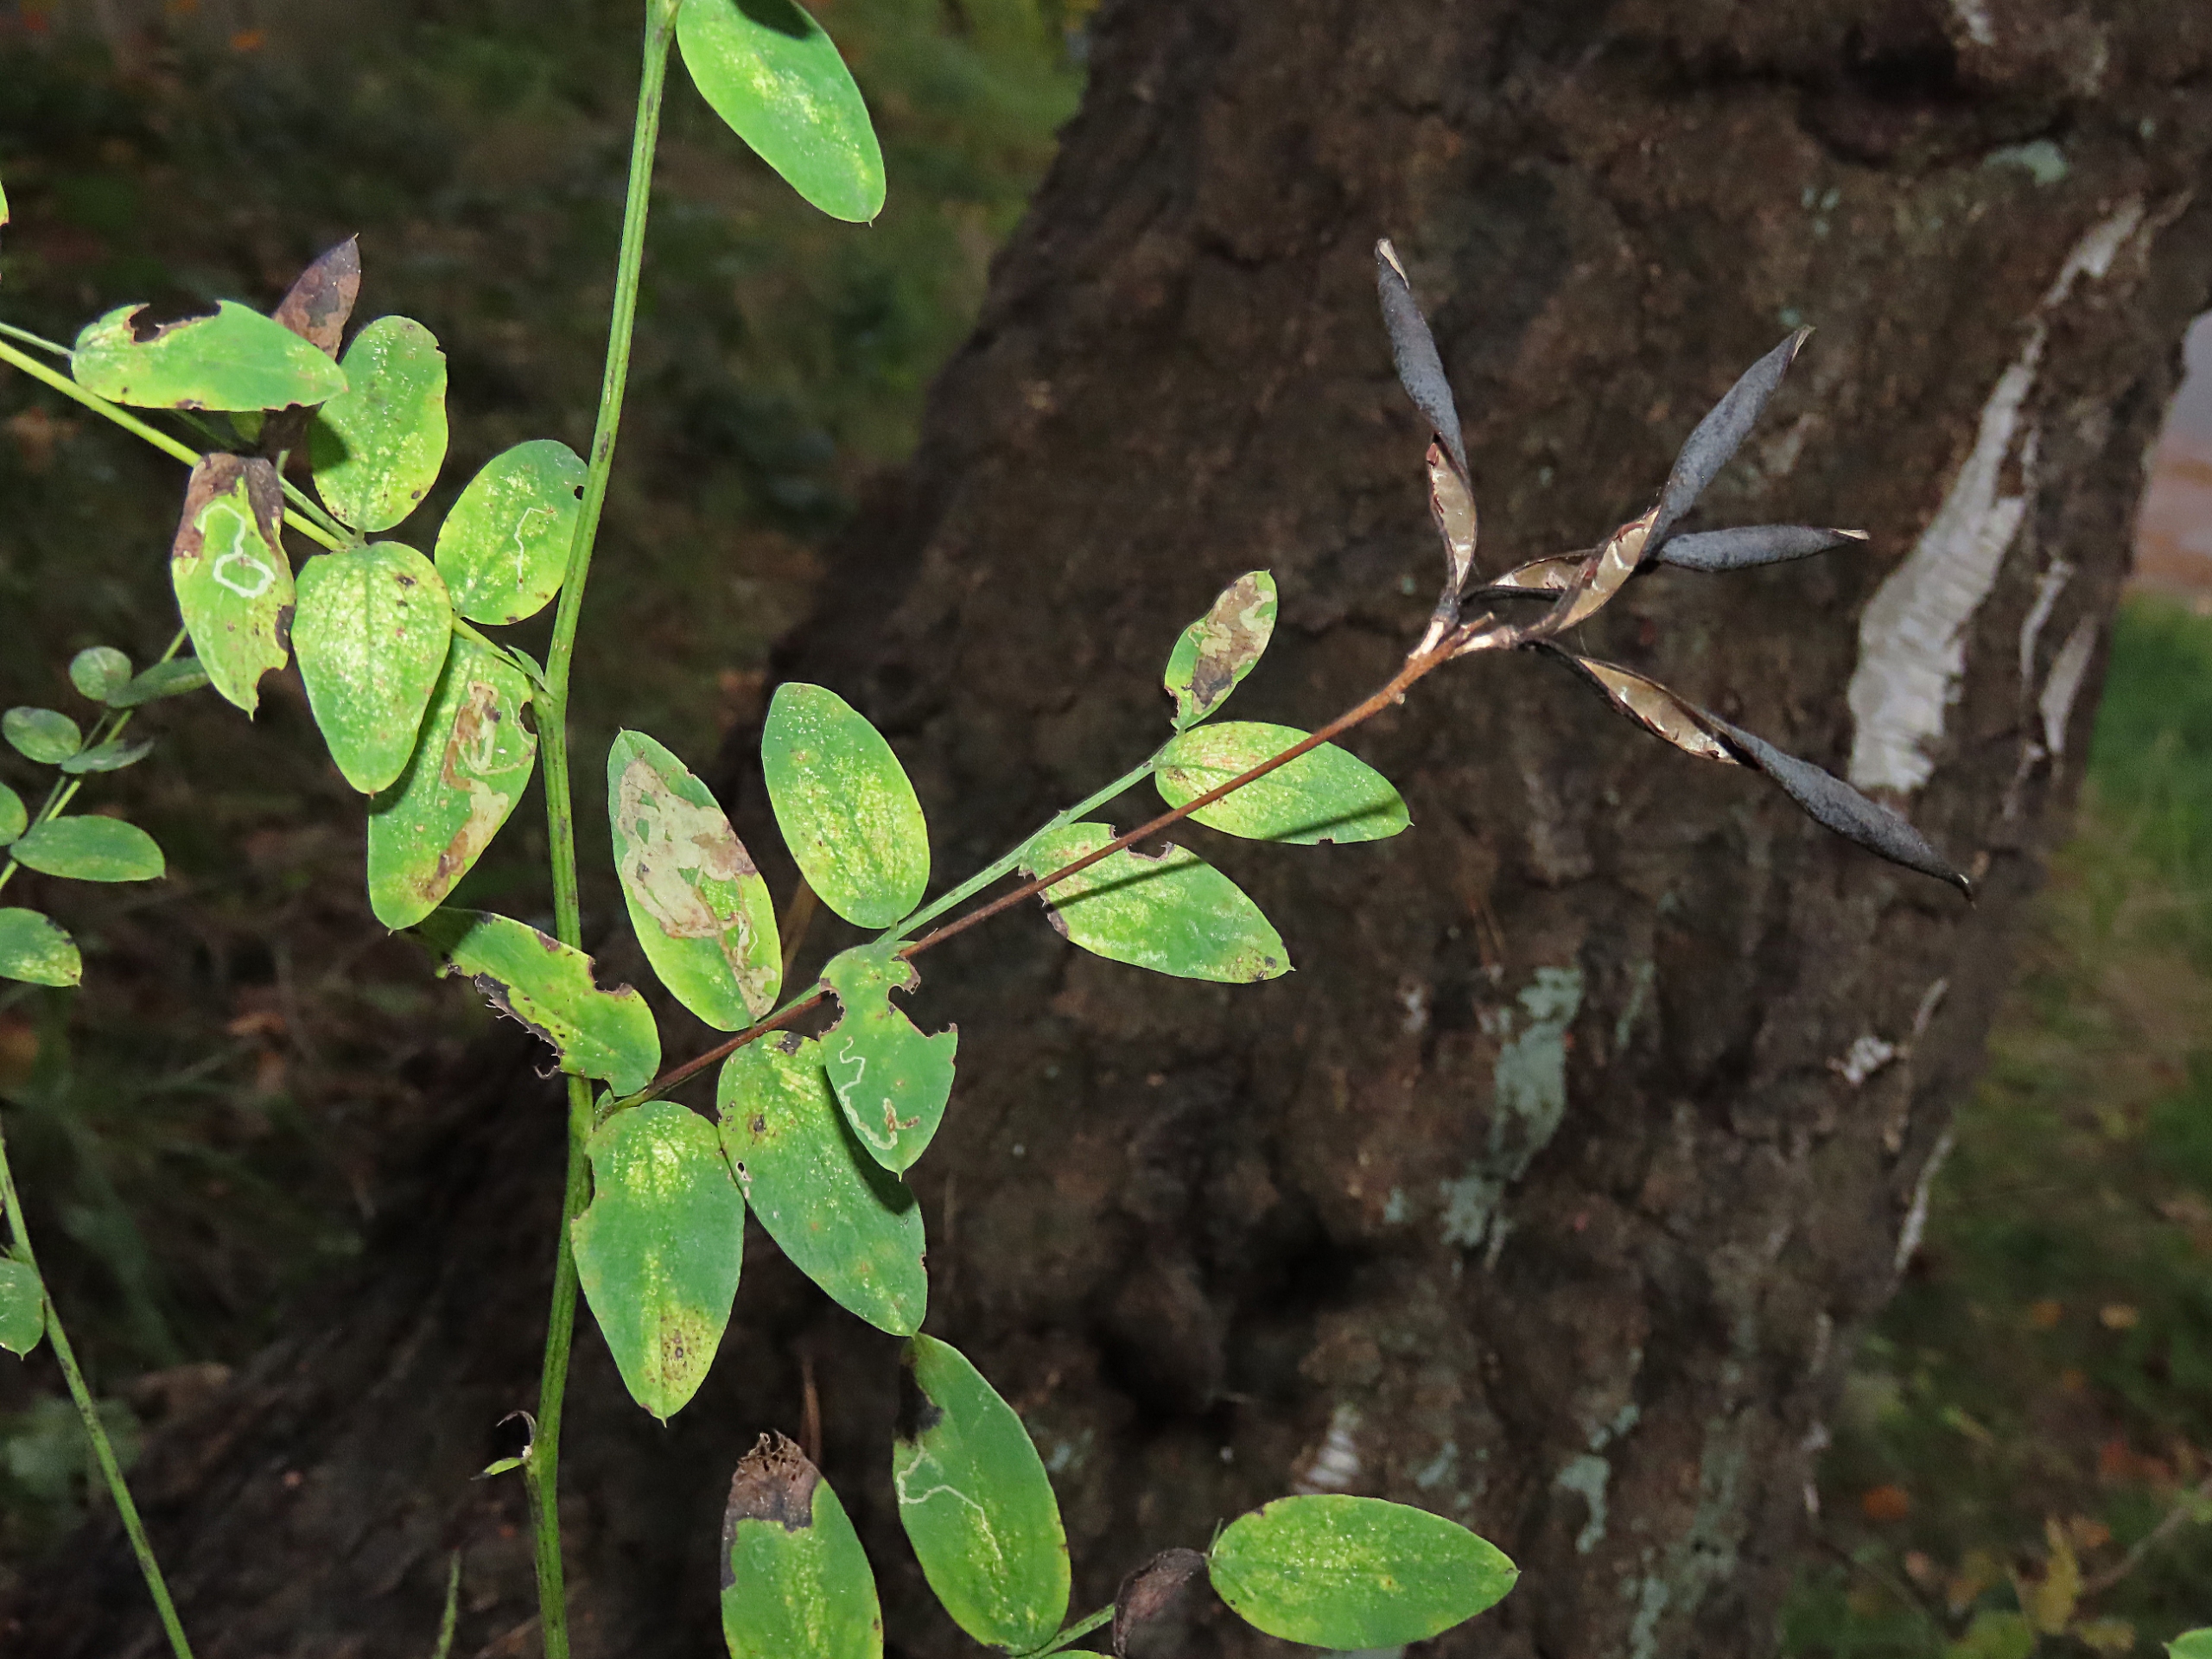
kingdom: Plantae
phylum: Tracheophyta
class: Magnoliopsida
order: Fabales
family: Fabaceae
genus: Lathyrus
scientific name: Lathyrus niger
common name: Sort fladbælg
